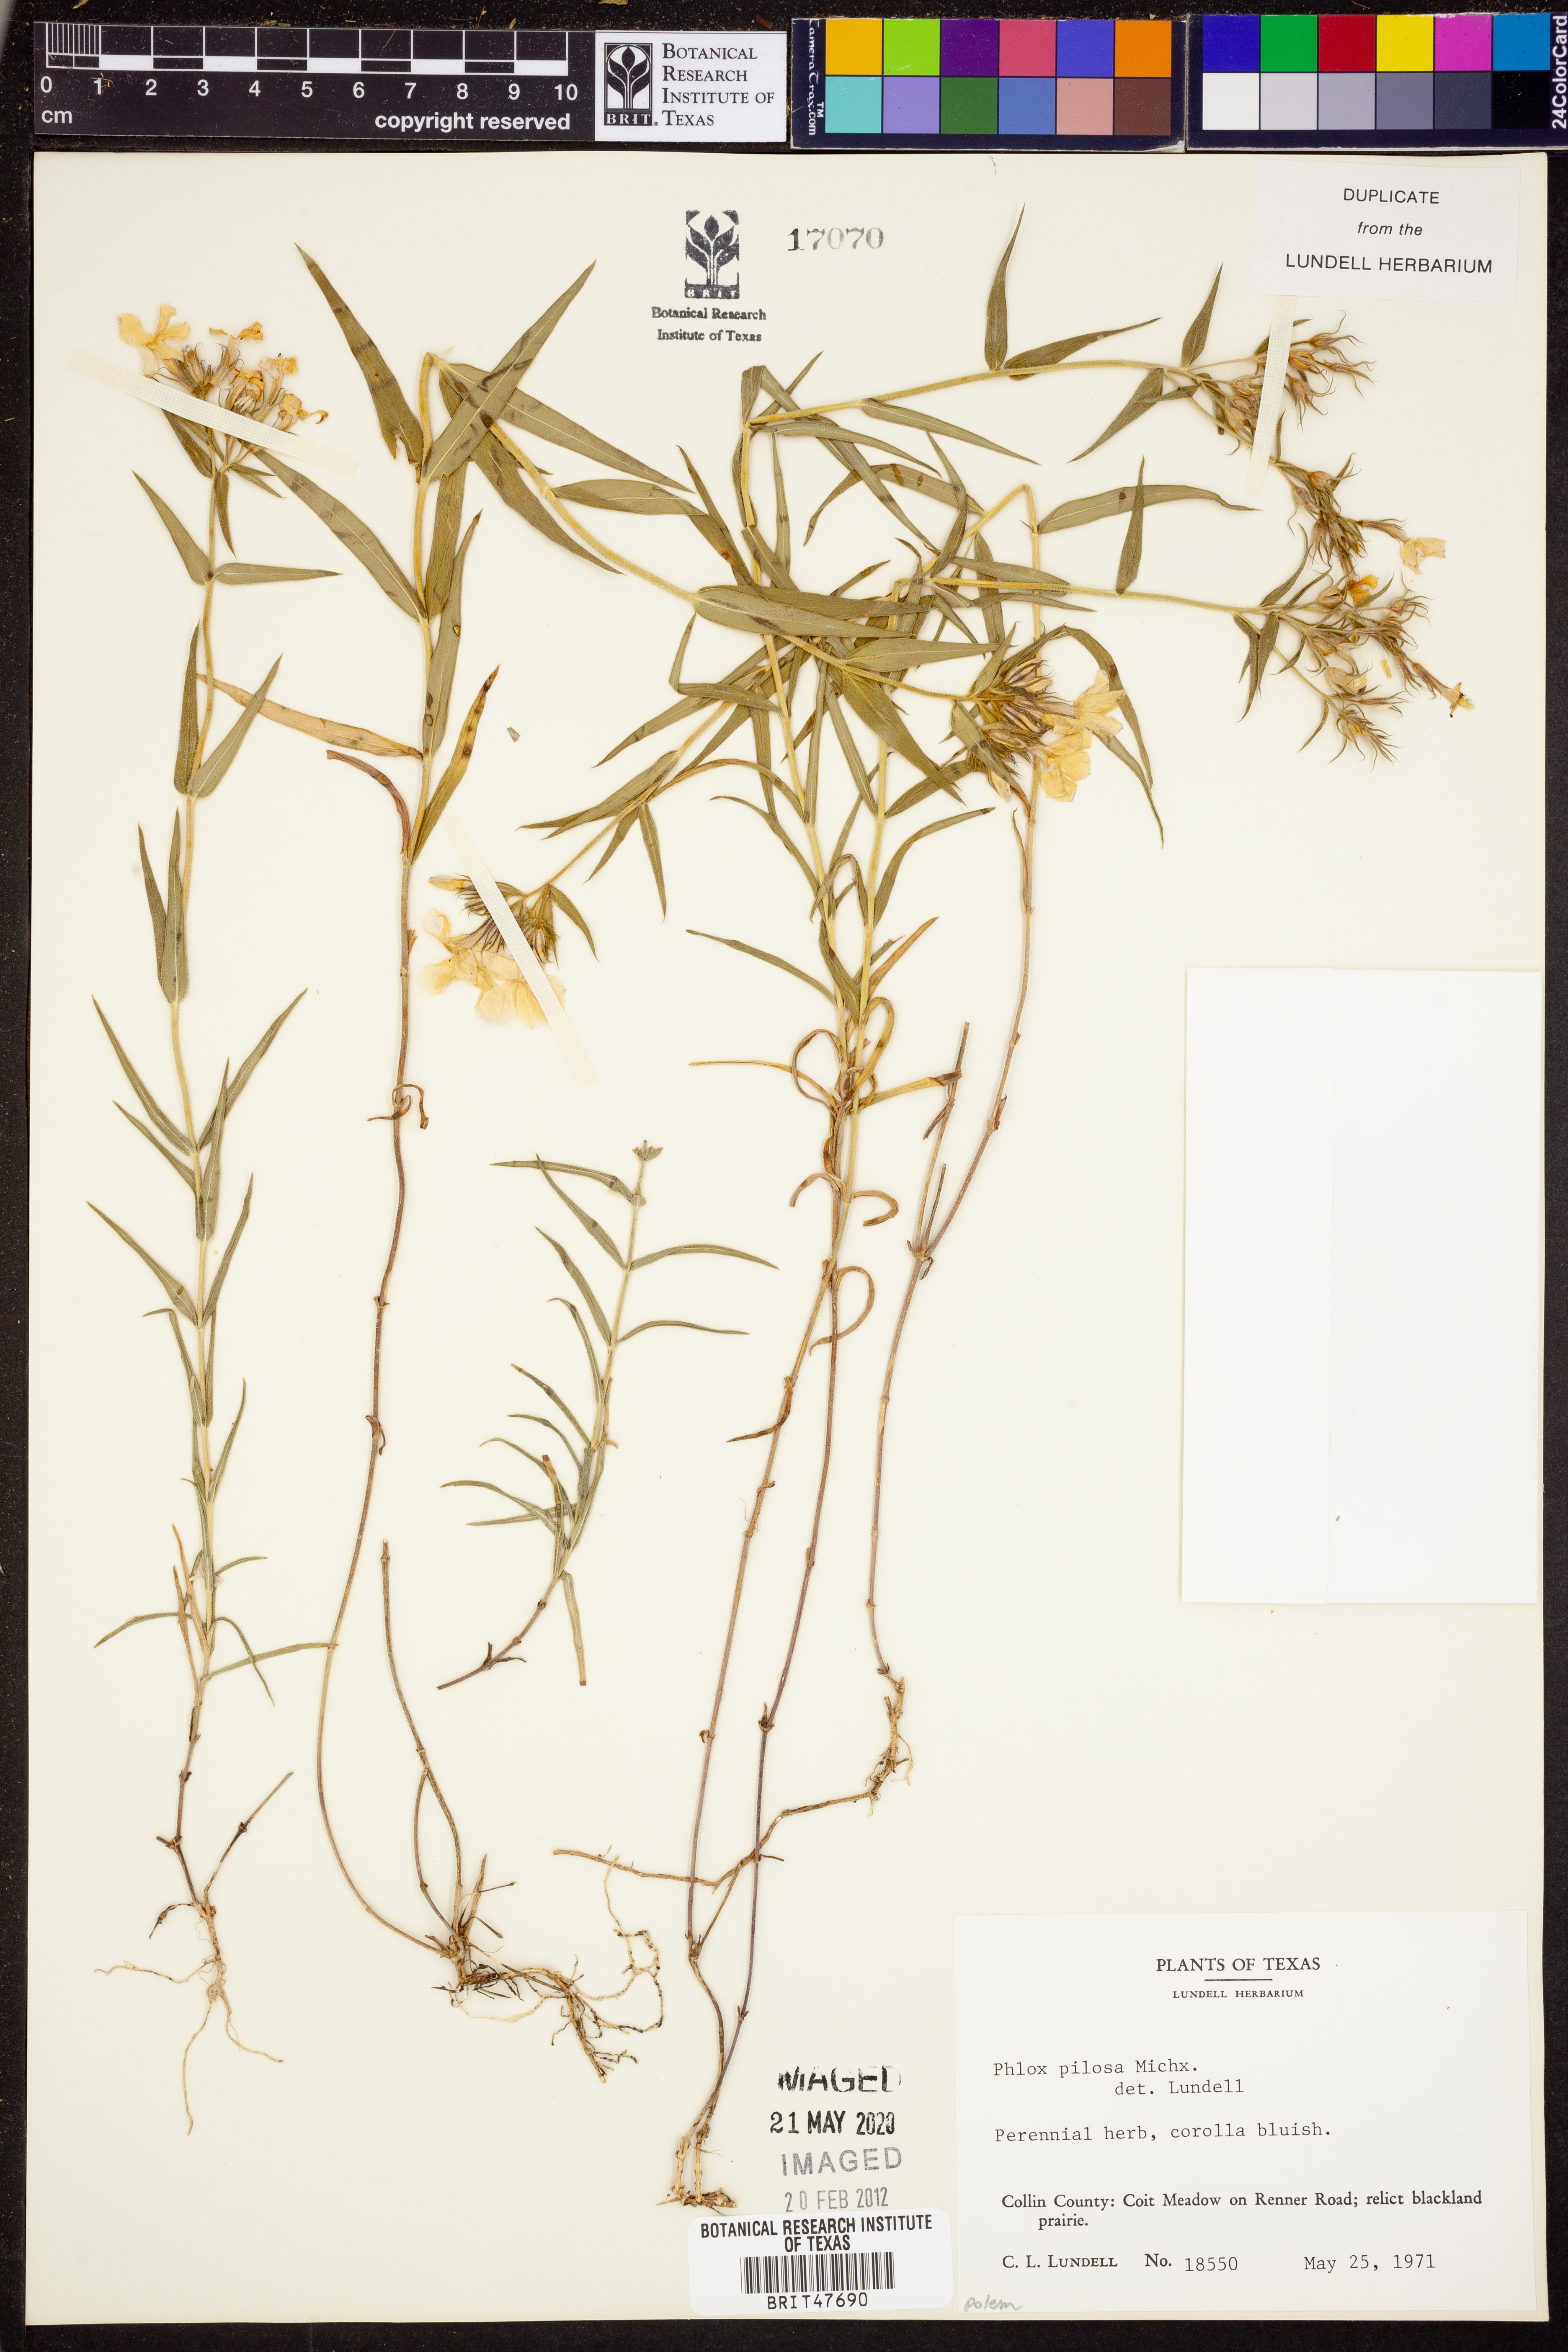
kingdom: Plantae
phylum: Tracheophyta
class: Magnoliopsida
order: Ericales
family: Polemoniaceae
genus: Phlox
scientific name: Phlox pilosa
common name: Prairie phlox
